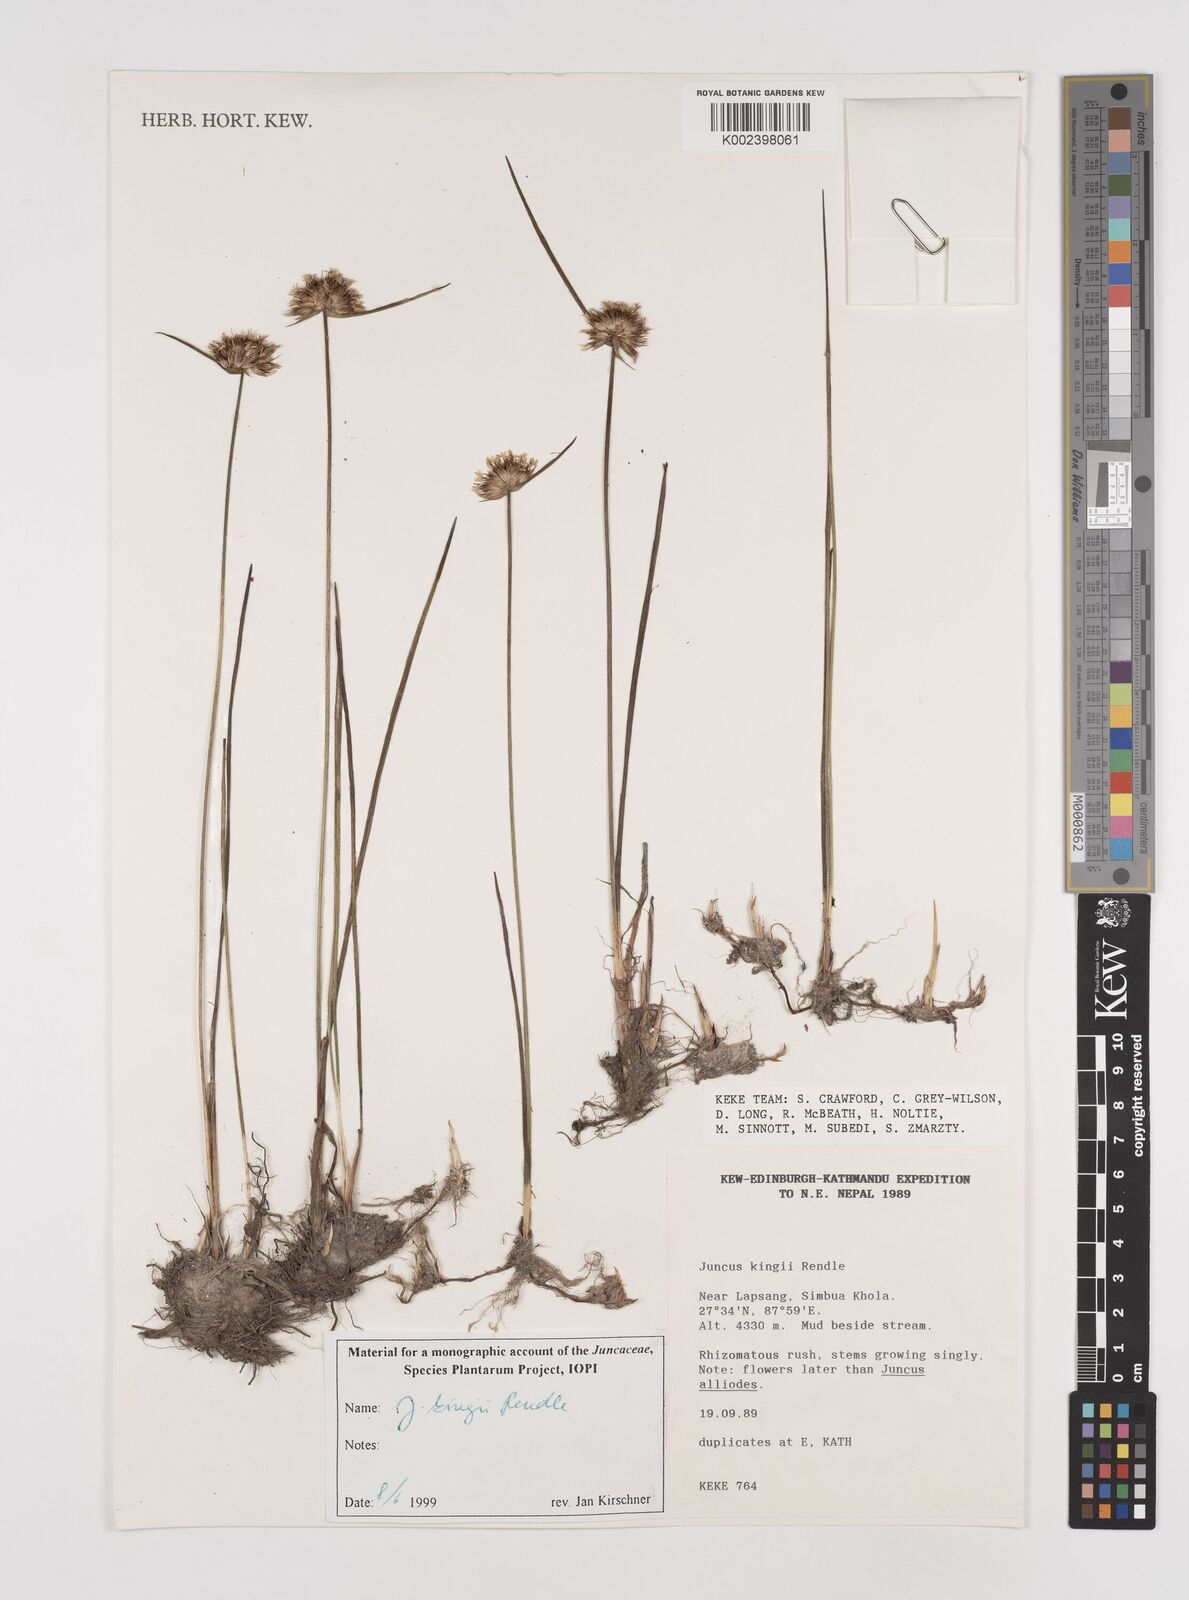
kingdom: Plantae
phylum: Tracheophyta
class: Liliopsida
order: Poales
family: Juncaceae
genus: Juncus
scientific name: Juncus kingii
